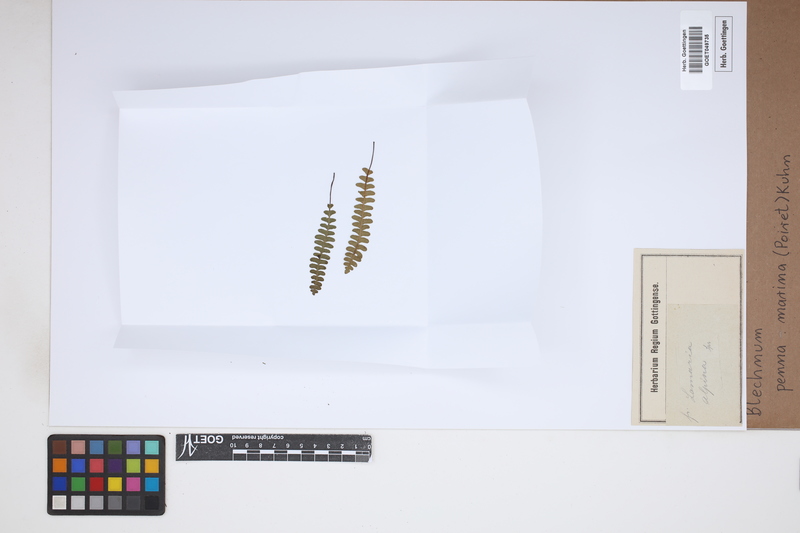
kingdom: Plantae
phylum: Tracheophyta
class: Polypodiopsida
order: Polypodiales
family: Blechnaceae
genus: Austroblechnum
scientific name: Austroblechnum penna-marina
